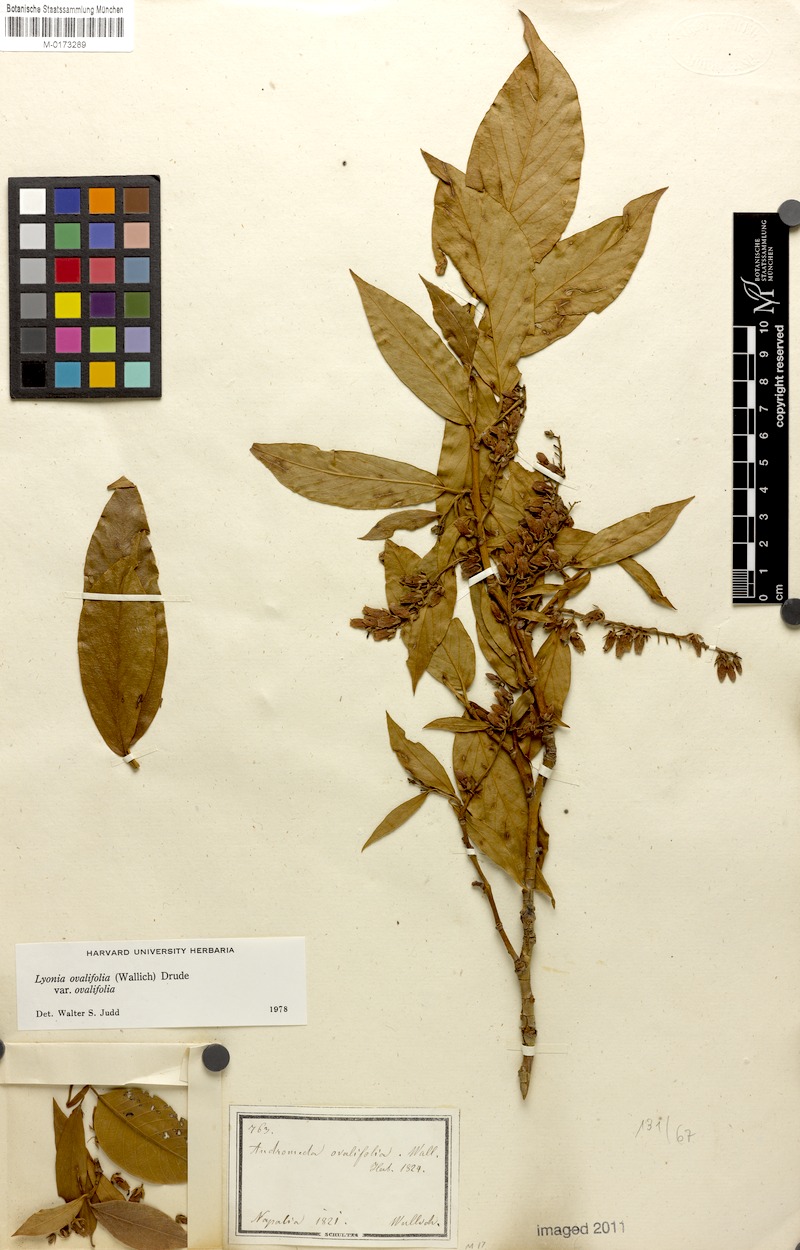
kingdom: Plantae
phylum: Tracheophyta
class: Magnoliopsida
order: Ericales
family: Ericaceae
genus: Lyonia
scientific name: Lyonia ovalifolia
